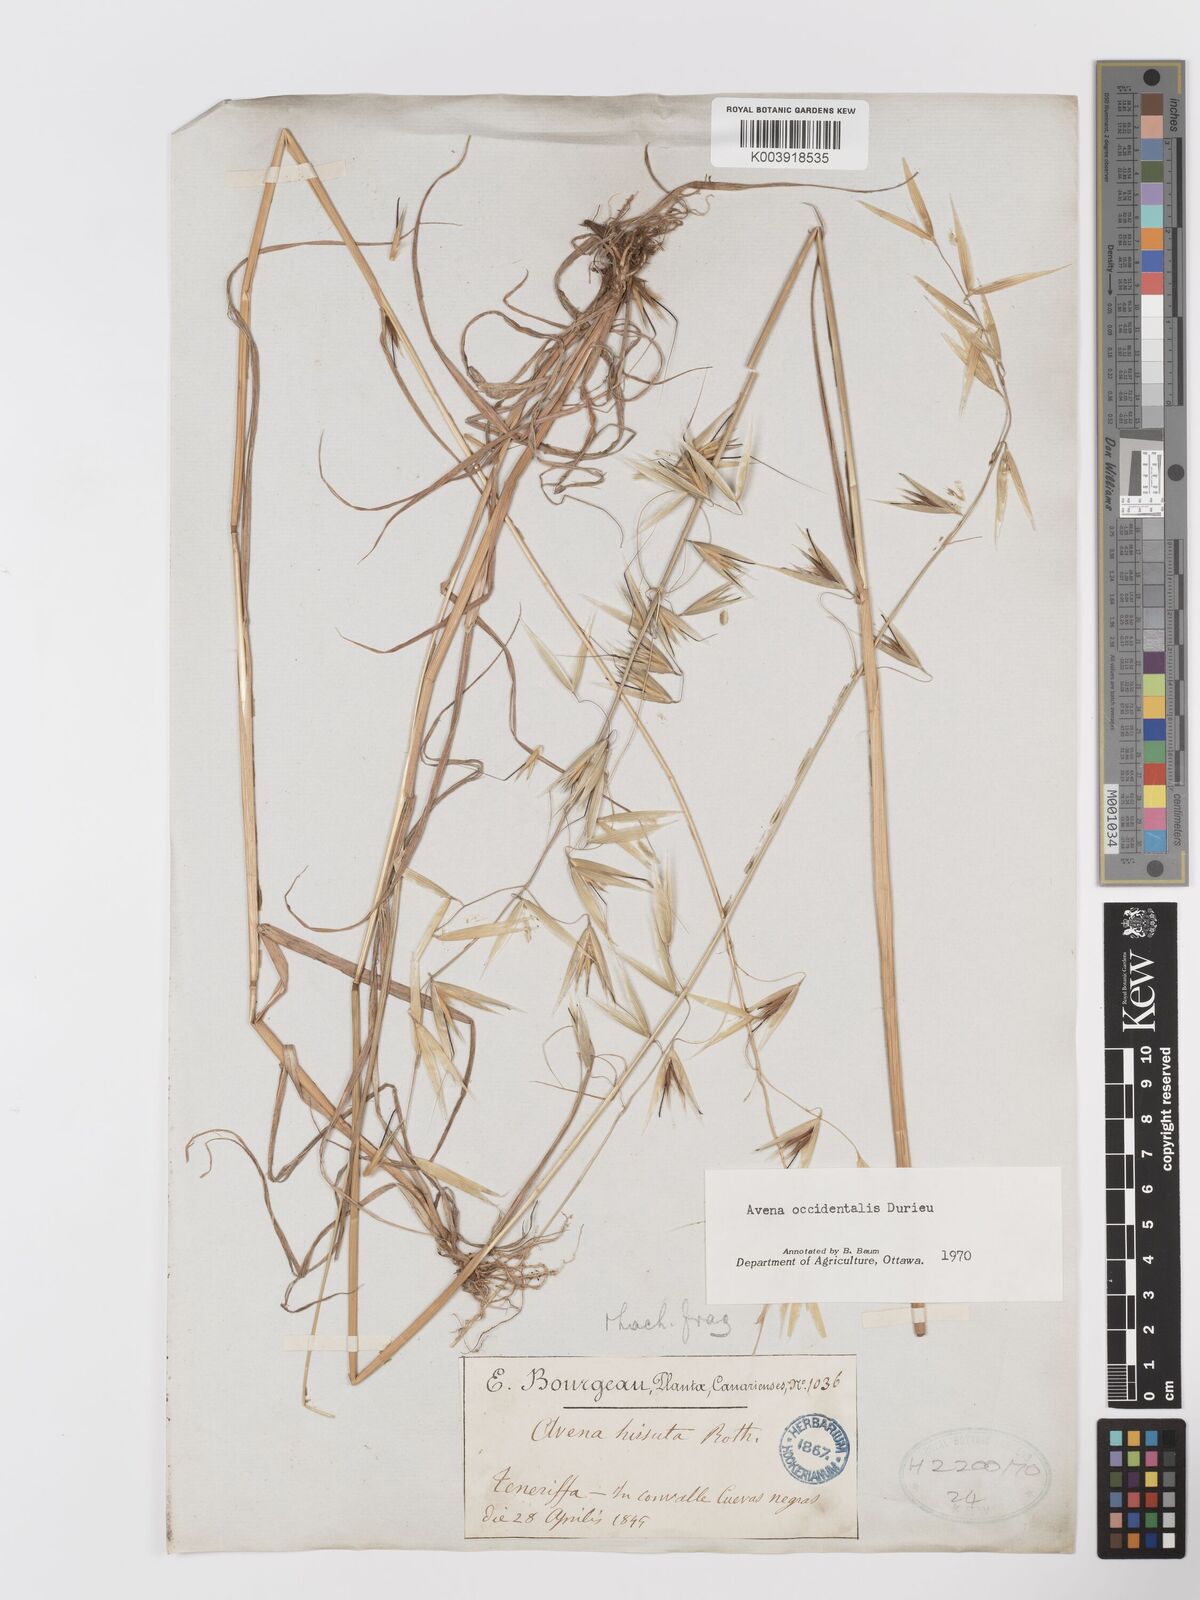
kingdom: Plantae
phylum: Tracheophyta
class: Liliopsida
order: Poales
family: Poaceae
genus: Avena
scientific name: Avena fatua
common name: Wild oat
